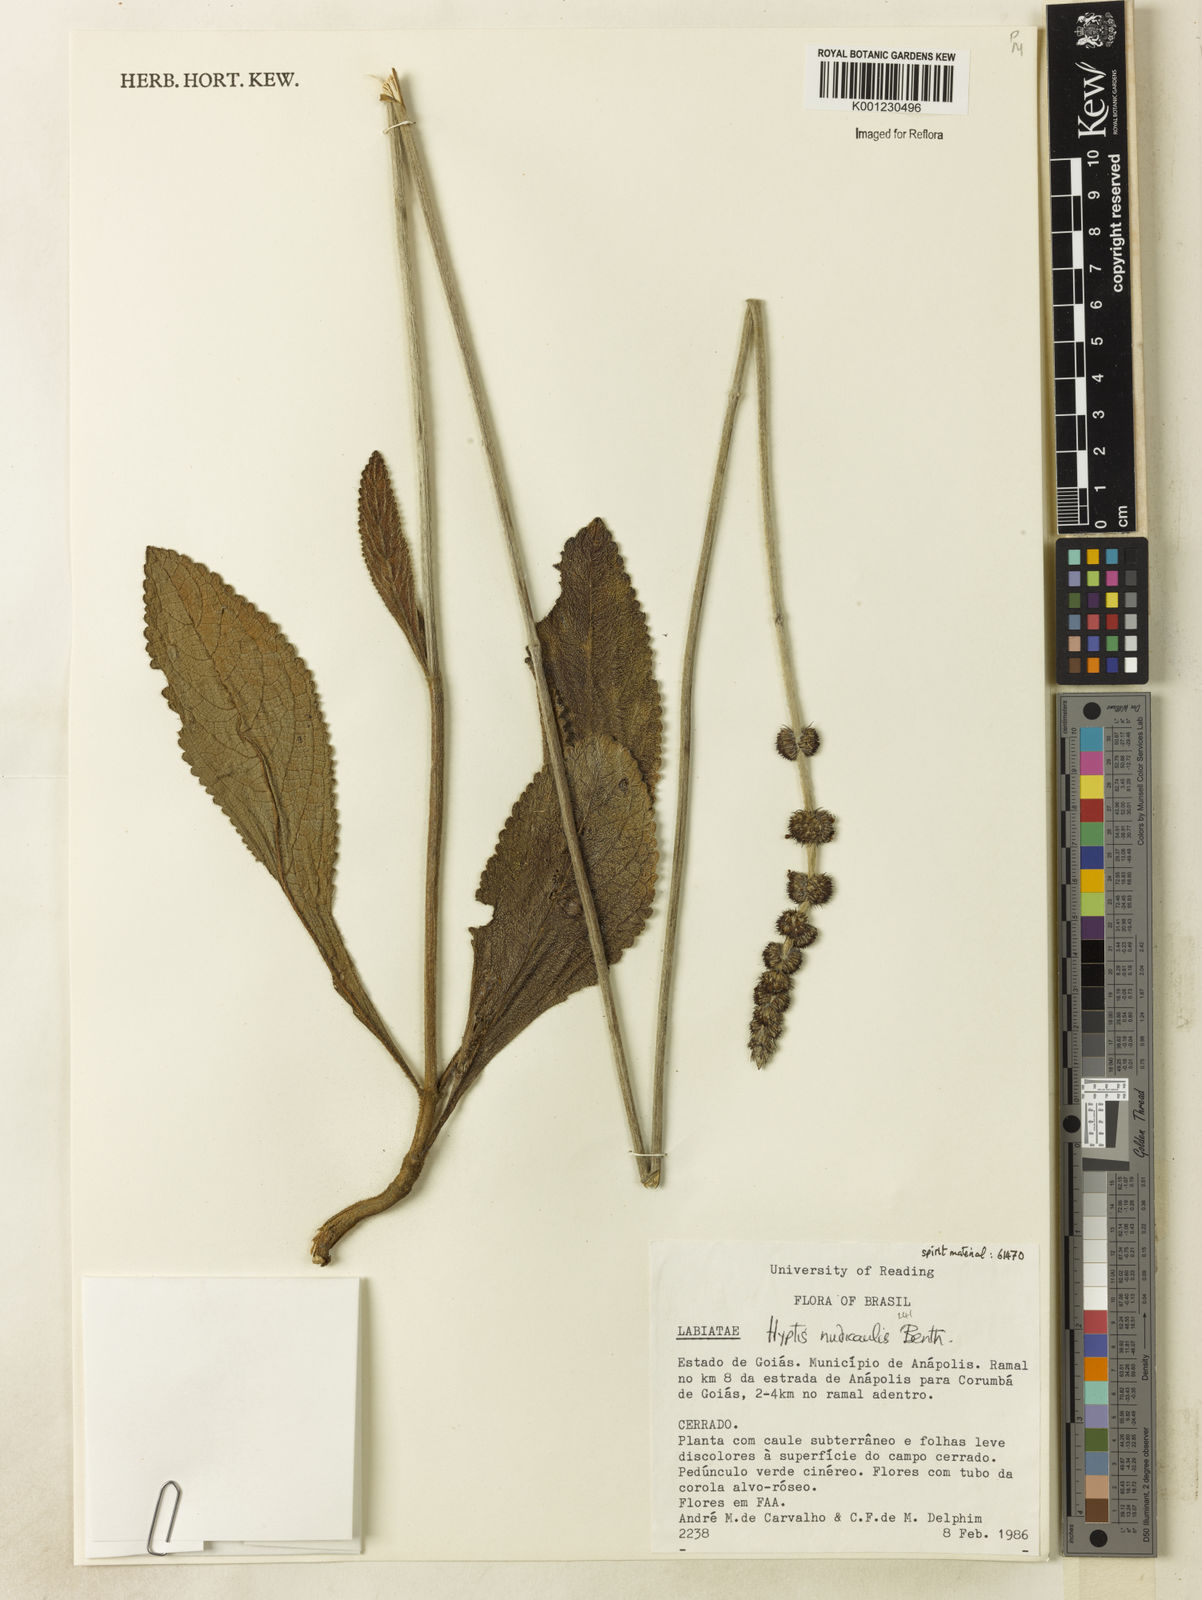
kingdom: Plantae
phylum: Tracheophyta
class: Magnoliopsida
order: Lamiales
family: Lamiaceae
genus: Hyptis
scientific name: Hyptis nudicaulis
